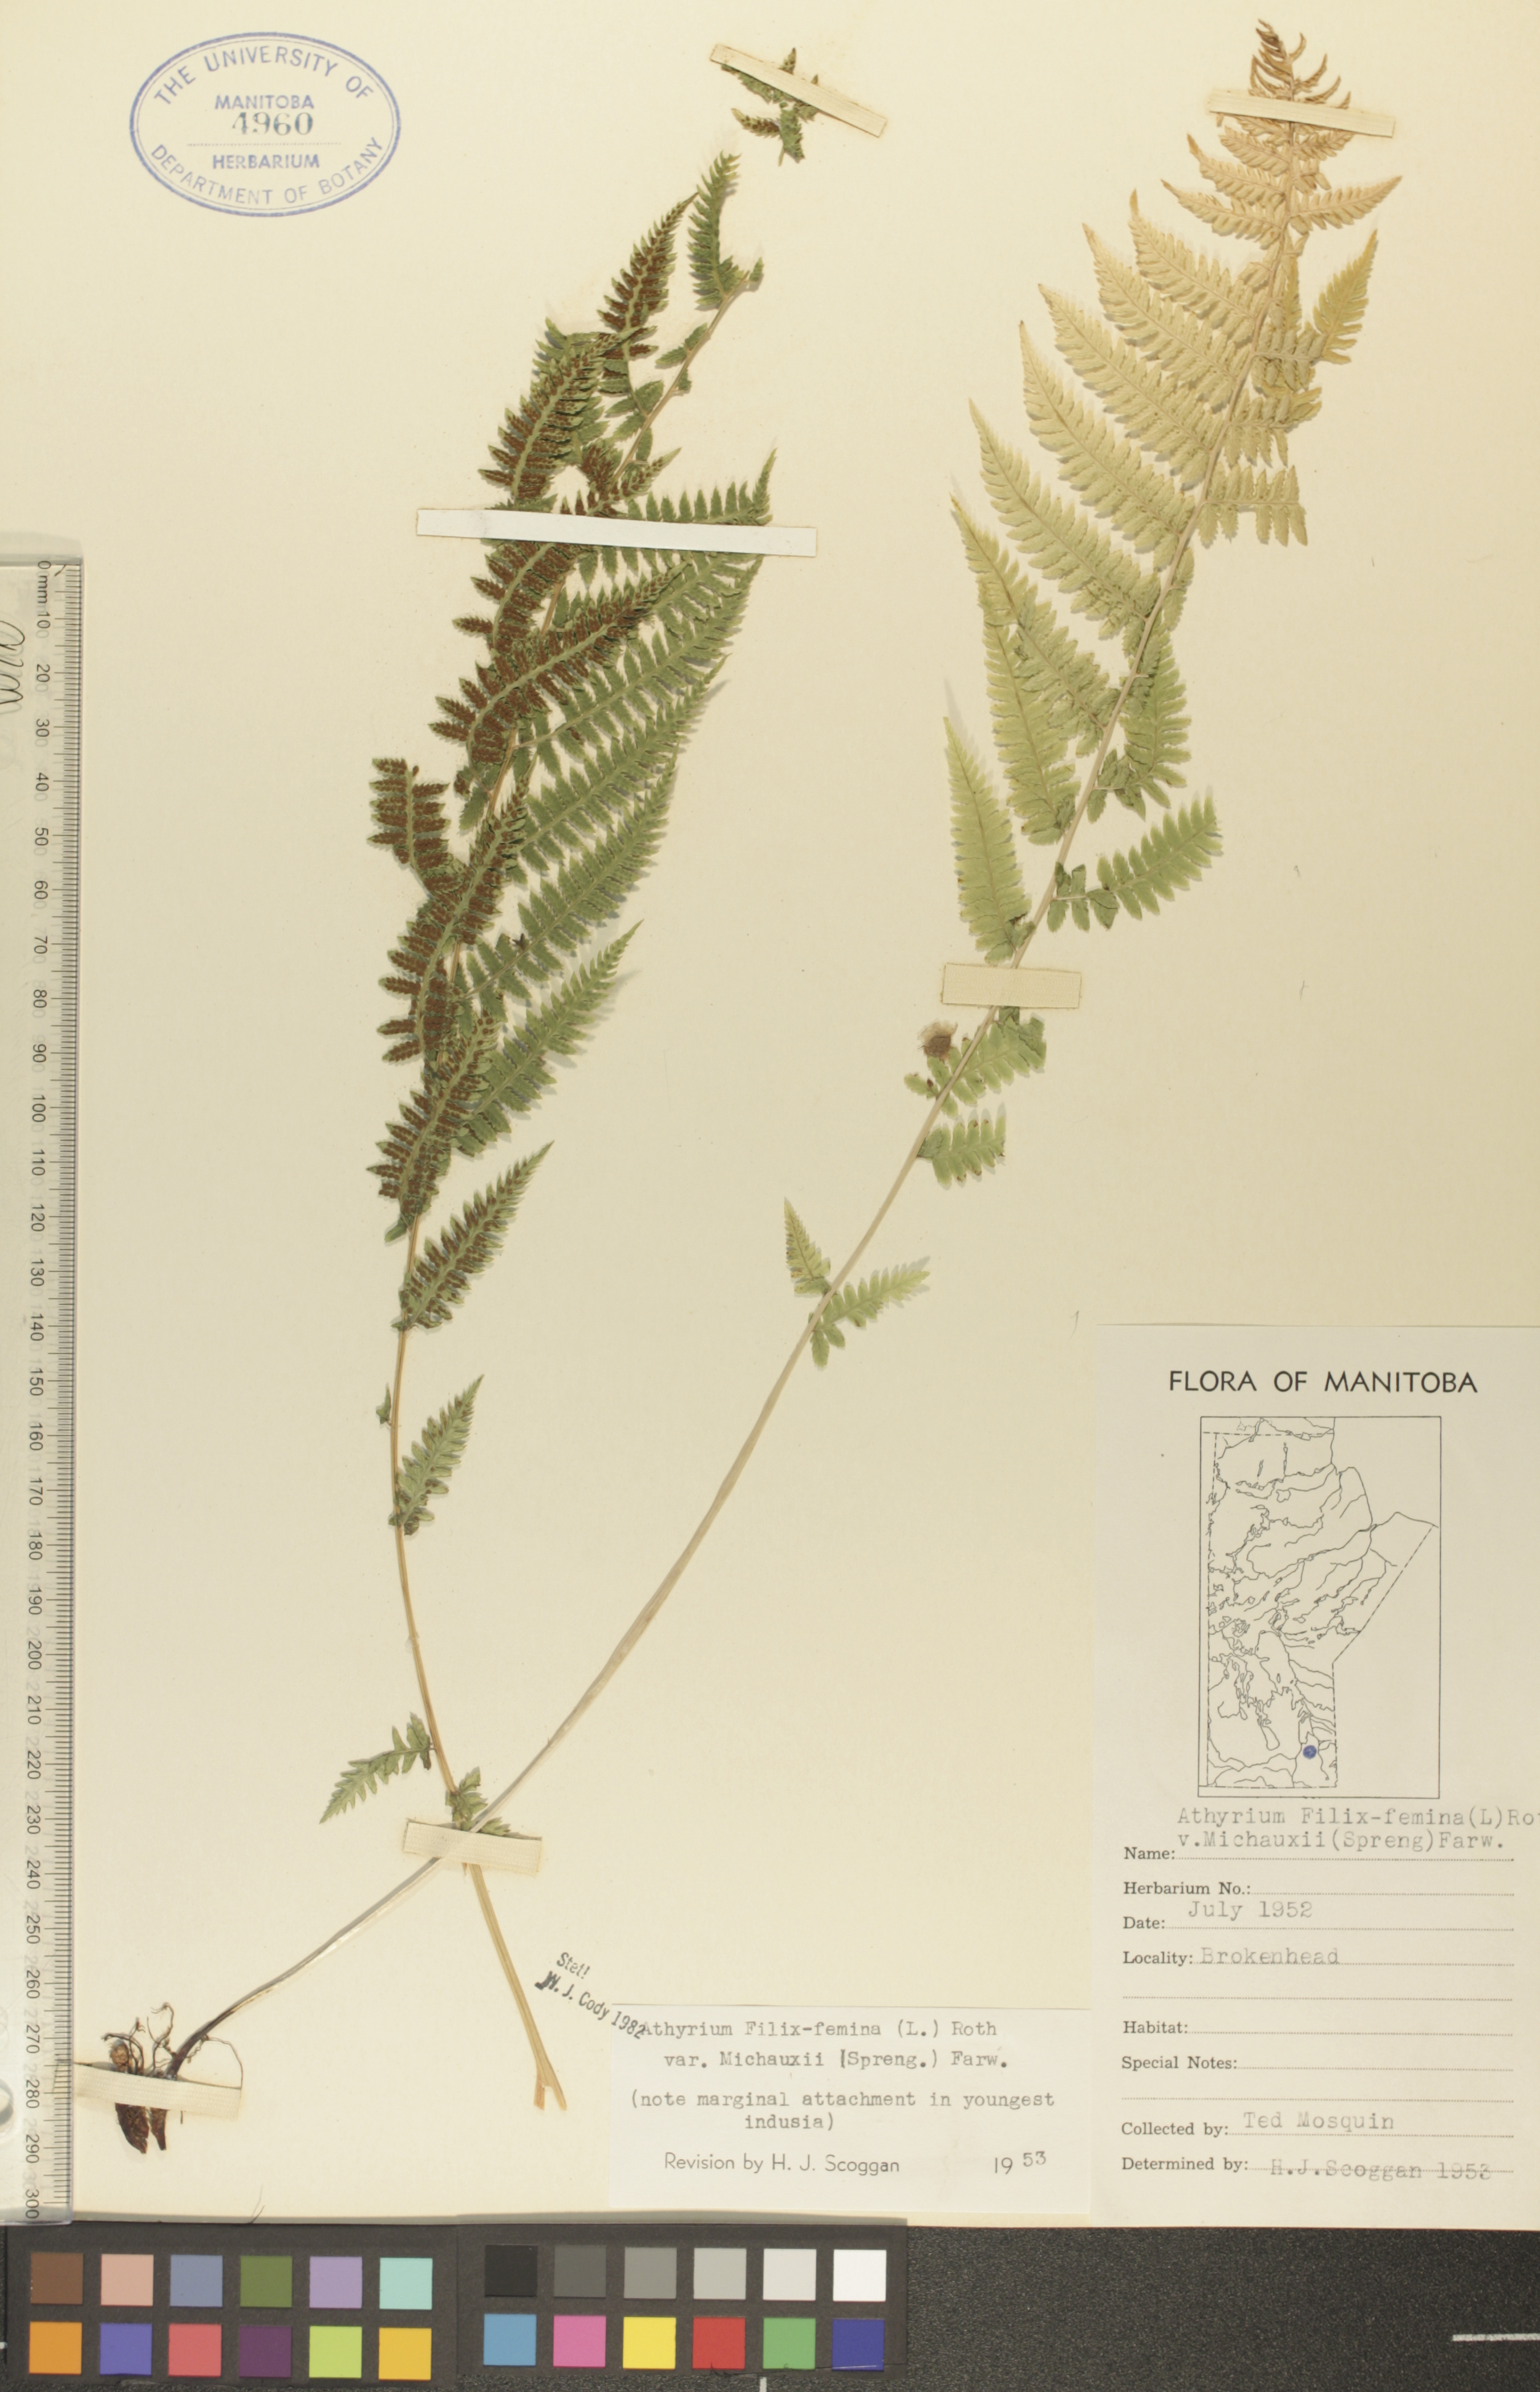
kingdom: Plantae
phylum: Tracheophyta
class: Polypodiopsida
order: Polypodiales
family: Athyriaceae
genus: Athyrium
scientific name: Athyrium angustum
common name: Northern lady fern
